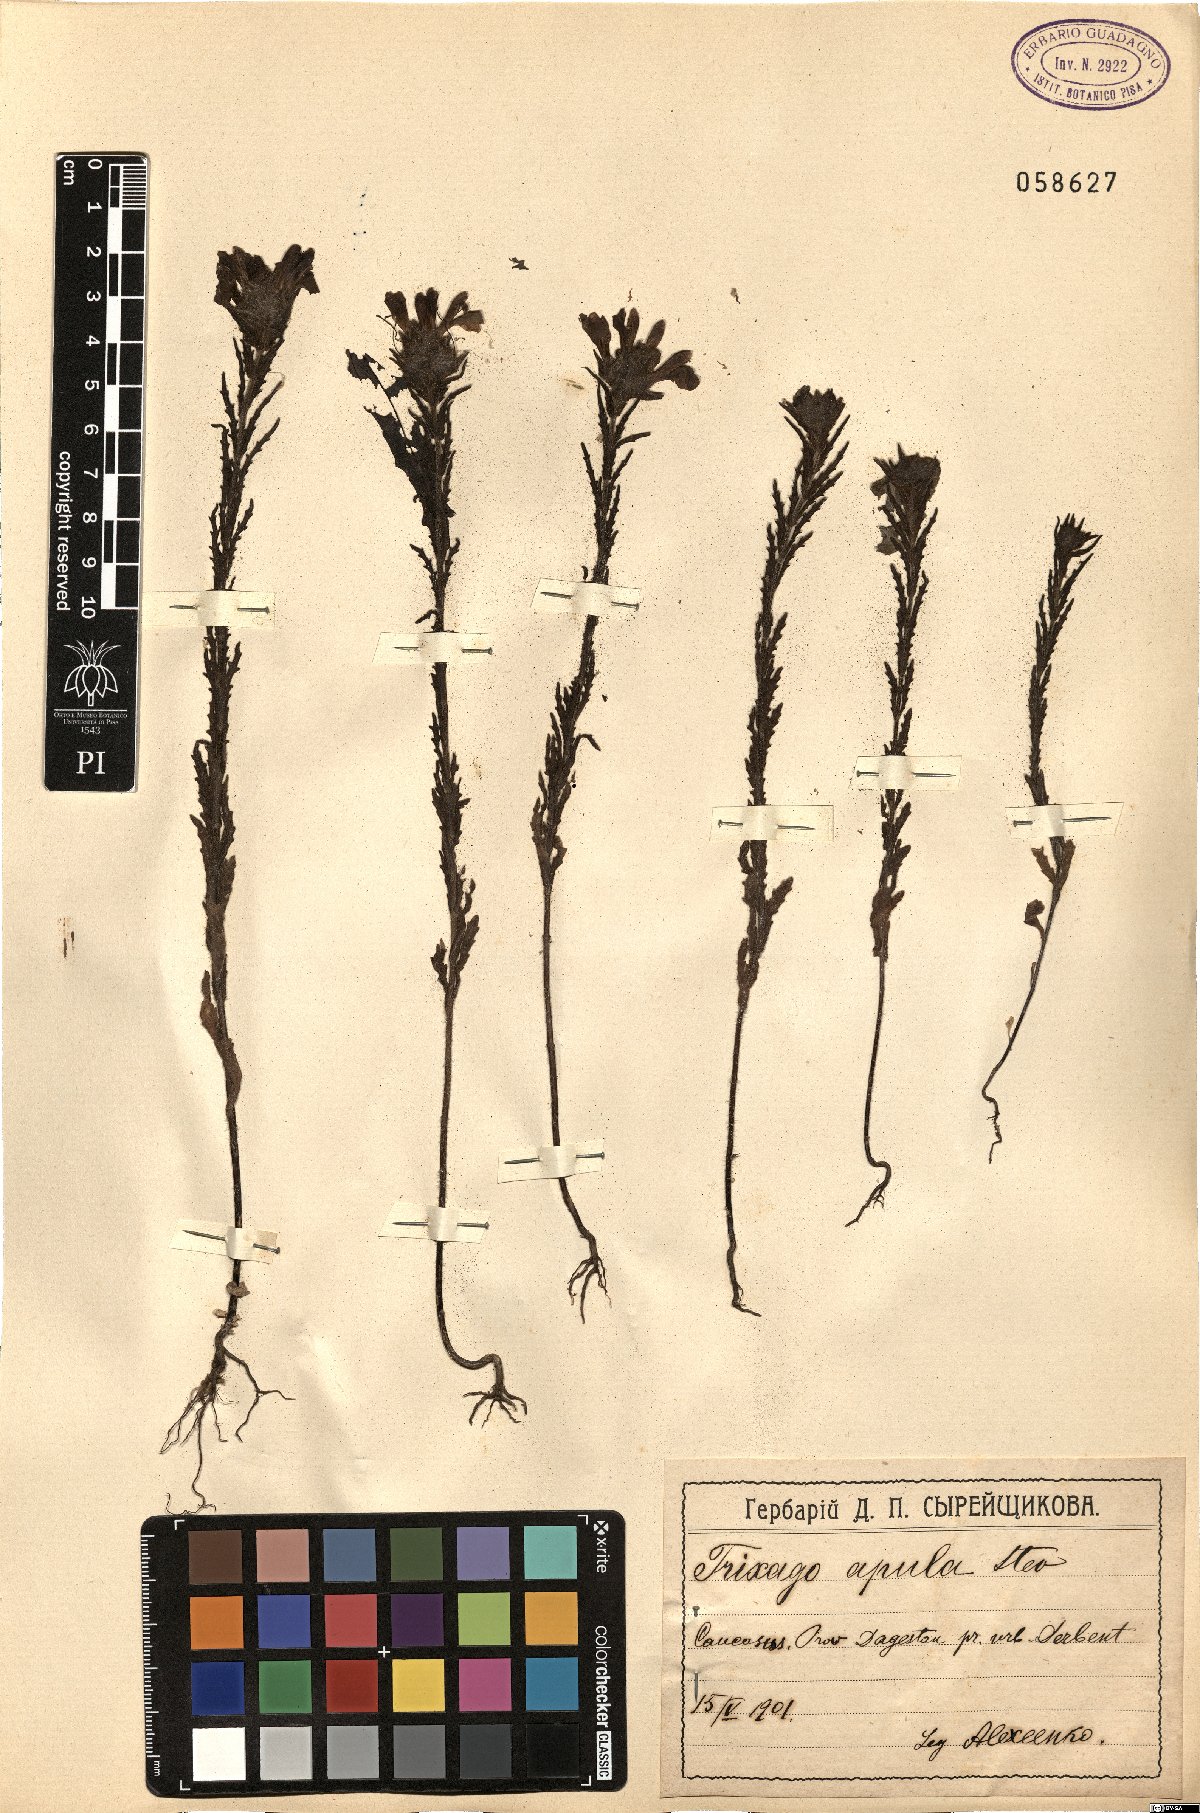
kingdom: Plantae
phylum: Tracheophyta
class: Magnoliopsida
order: Lamiales
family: Orobanchaceae
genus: Bellardia
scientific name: Bellardia trixago
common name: Mediterranean lineseed
